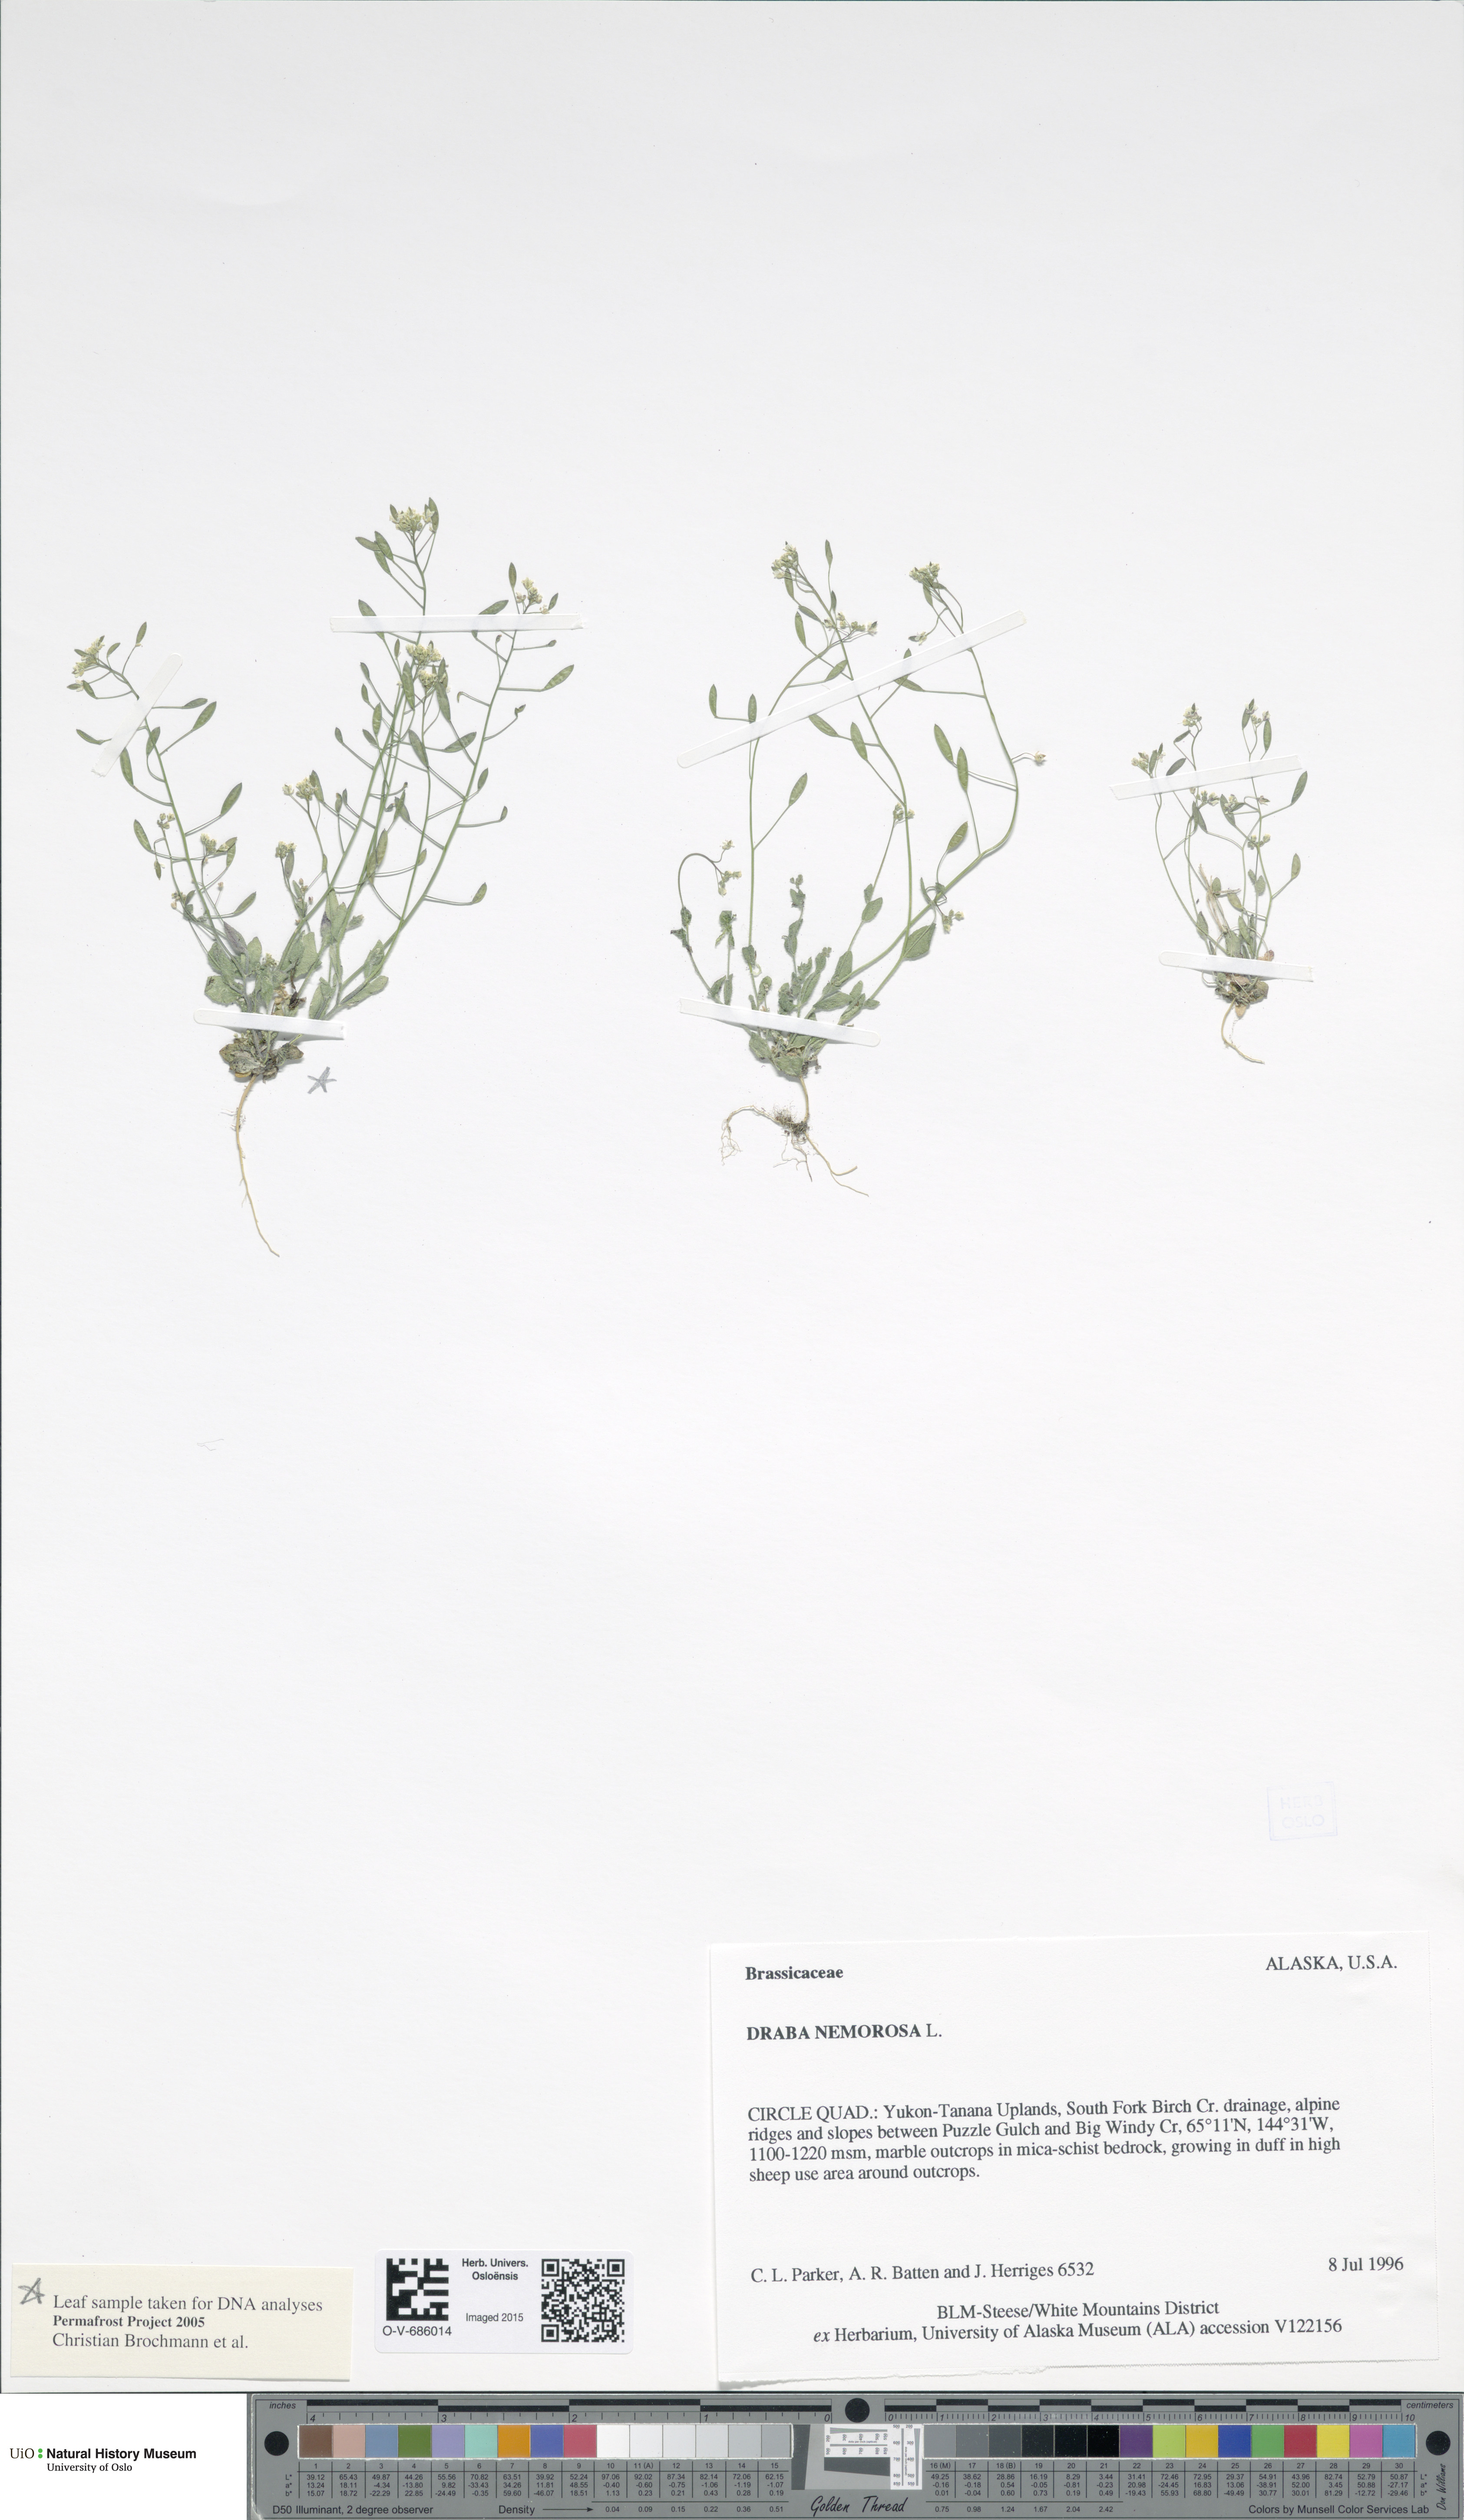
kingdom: Plantae
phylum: Tracheophyta
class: Magnoliopsida
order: Brassicales
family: Brassicaceae
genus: Draba
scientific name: Draba nemorosa
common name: Wood whitlow-grass
